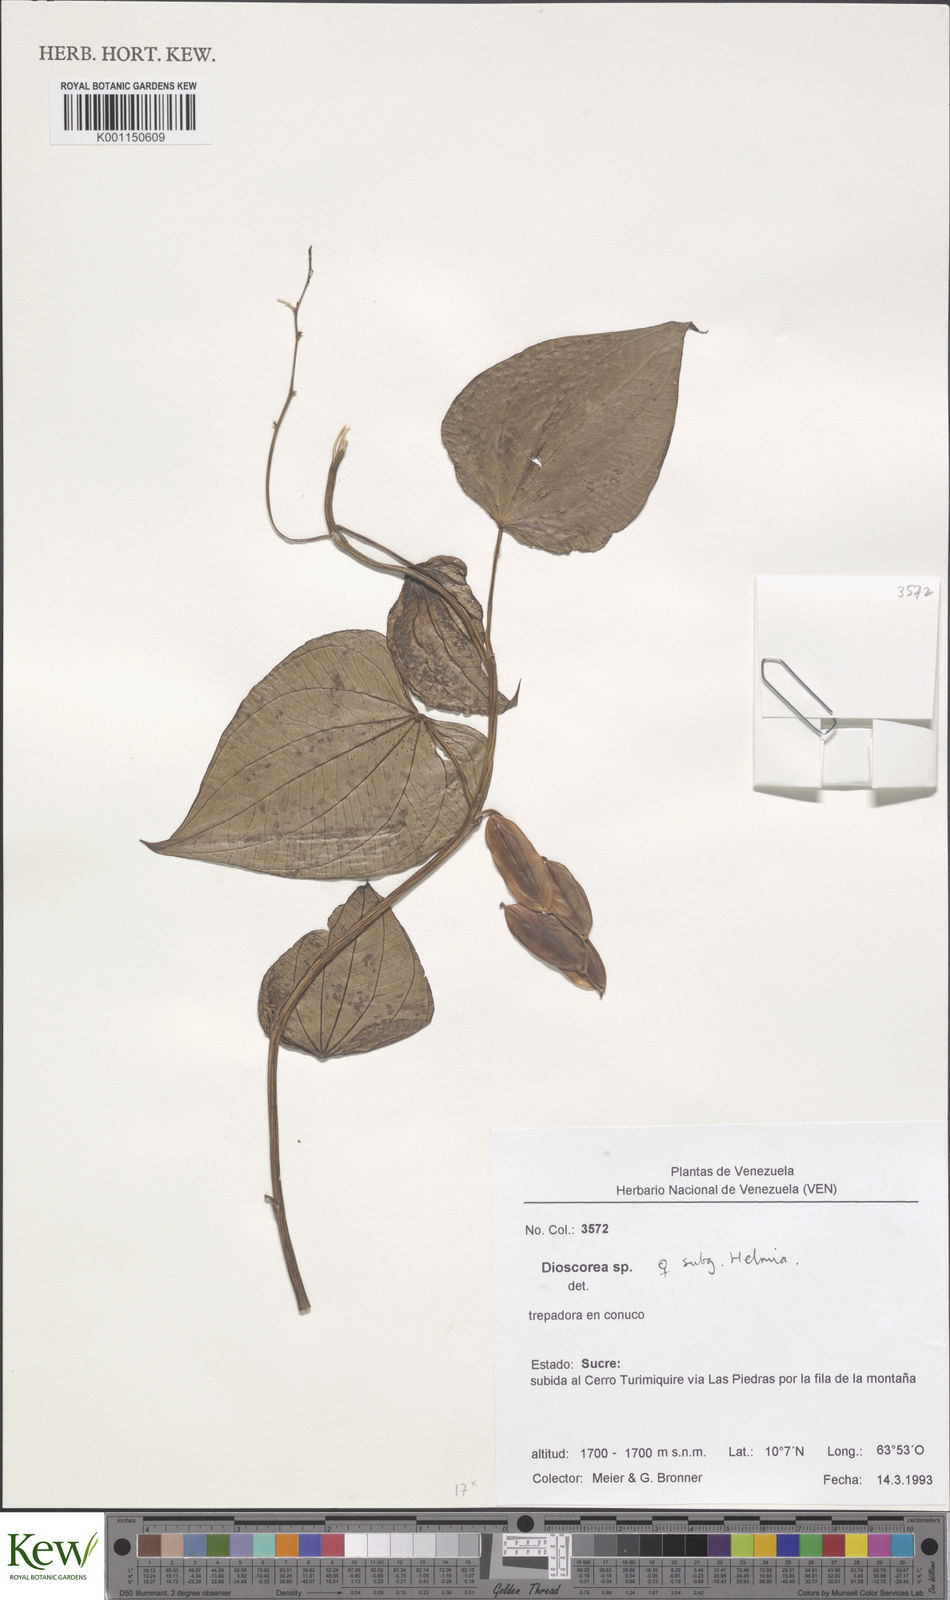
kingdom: Plantae
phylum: Tracheophyta
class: Liliopsida
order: Dioscoreales
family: Dioscoreaceae
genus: Dioscorea
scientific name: Dioscorea
